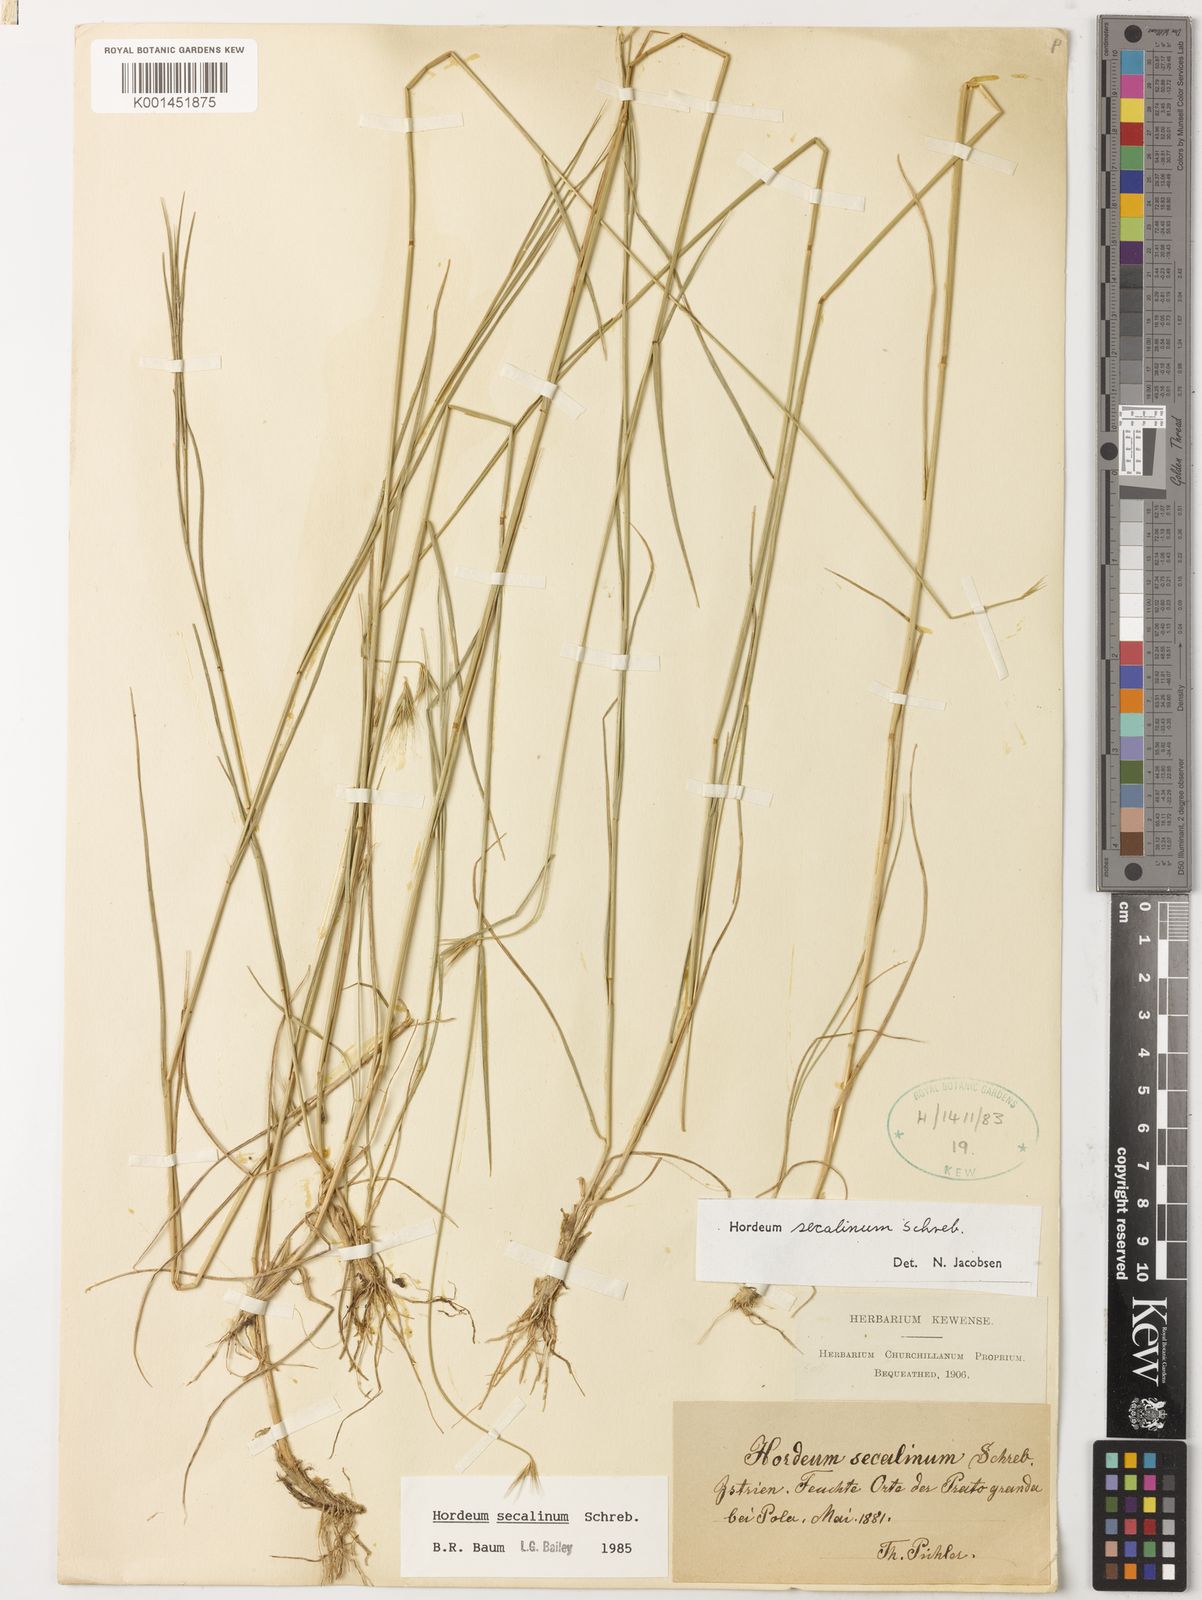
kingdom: Plantae
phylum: Tracheophyta
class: Liliopsida
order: Poales
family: Poaceae
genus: Hordeum
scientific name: Hordeum secalinum
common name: Meadow barley
